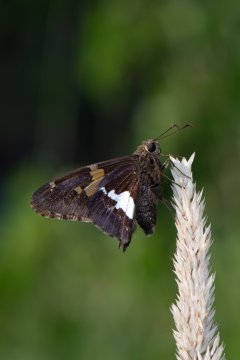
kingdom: Animalia
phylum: Arthropoda
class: Insecta
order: Lepidoptera
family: Hesperiidae
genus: Epargyreus
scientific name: Epargyreus clarus
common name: Silver-spotted Skipper
